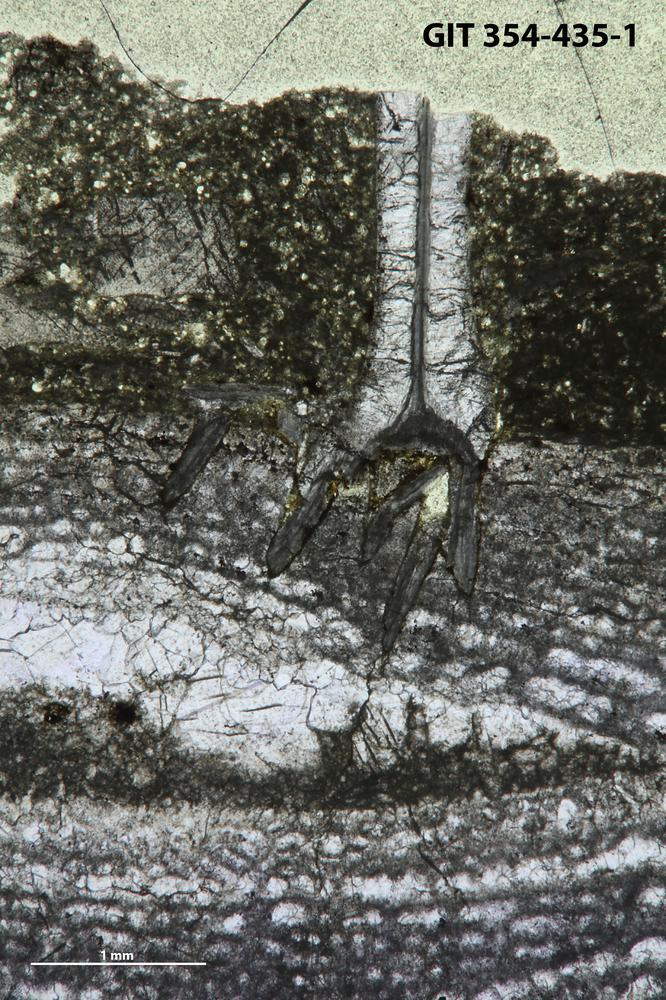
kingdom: Animalia
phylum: Echinodermata
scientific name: Echinodermata
